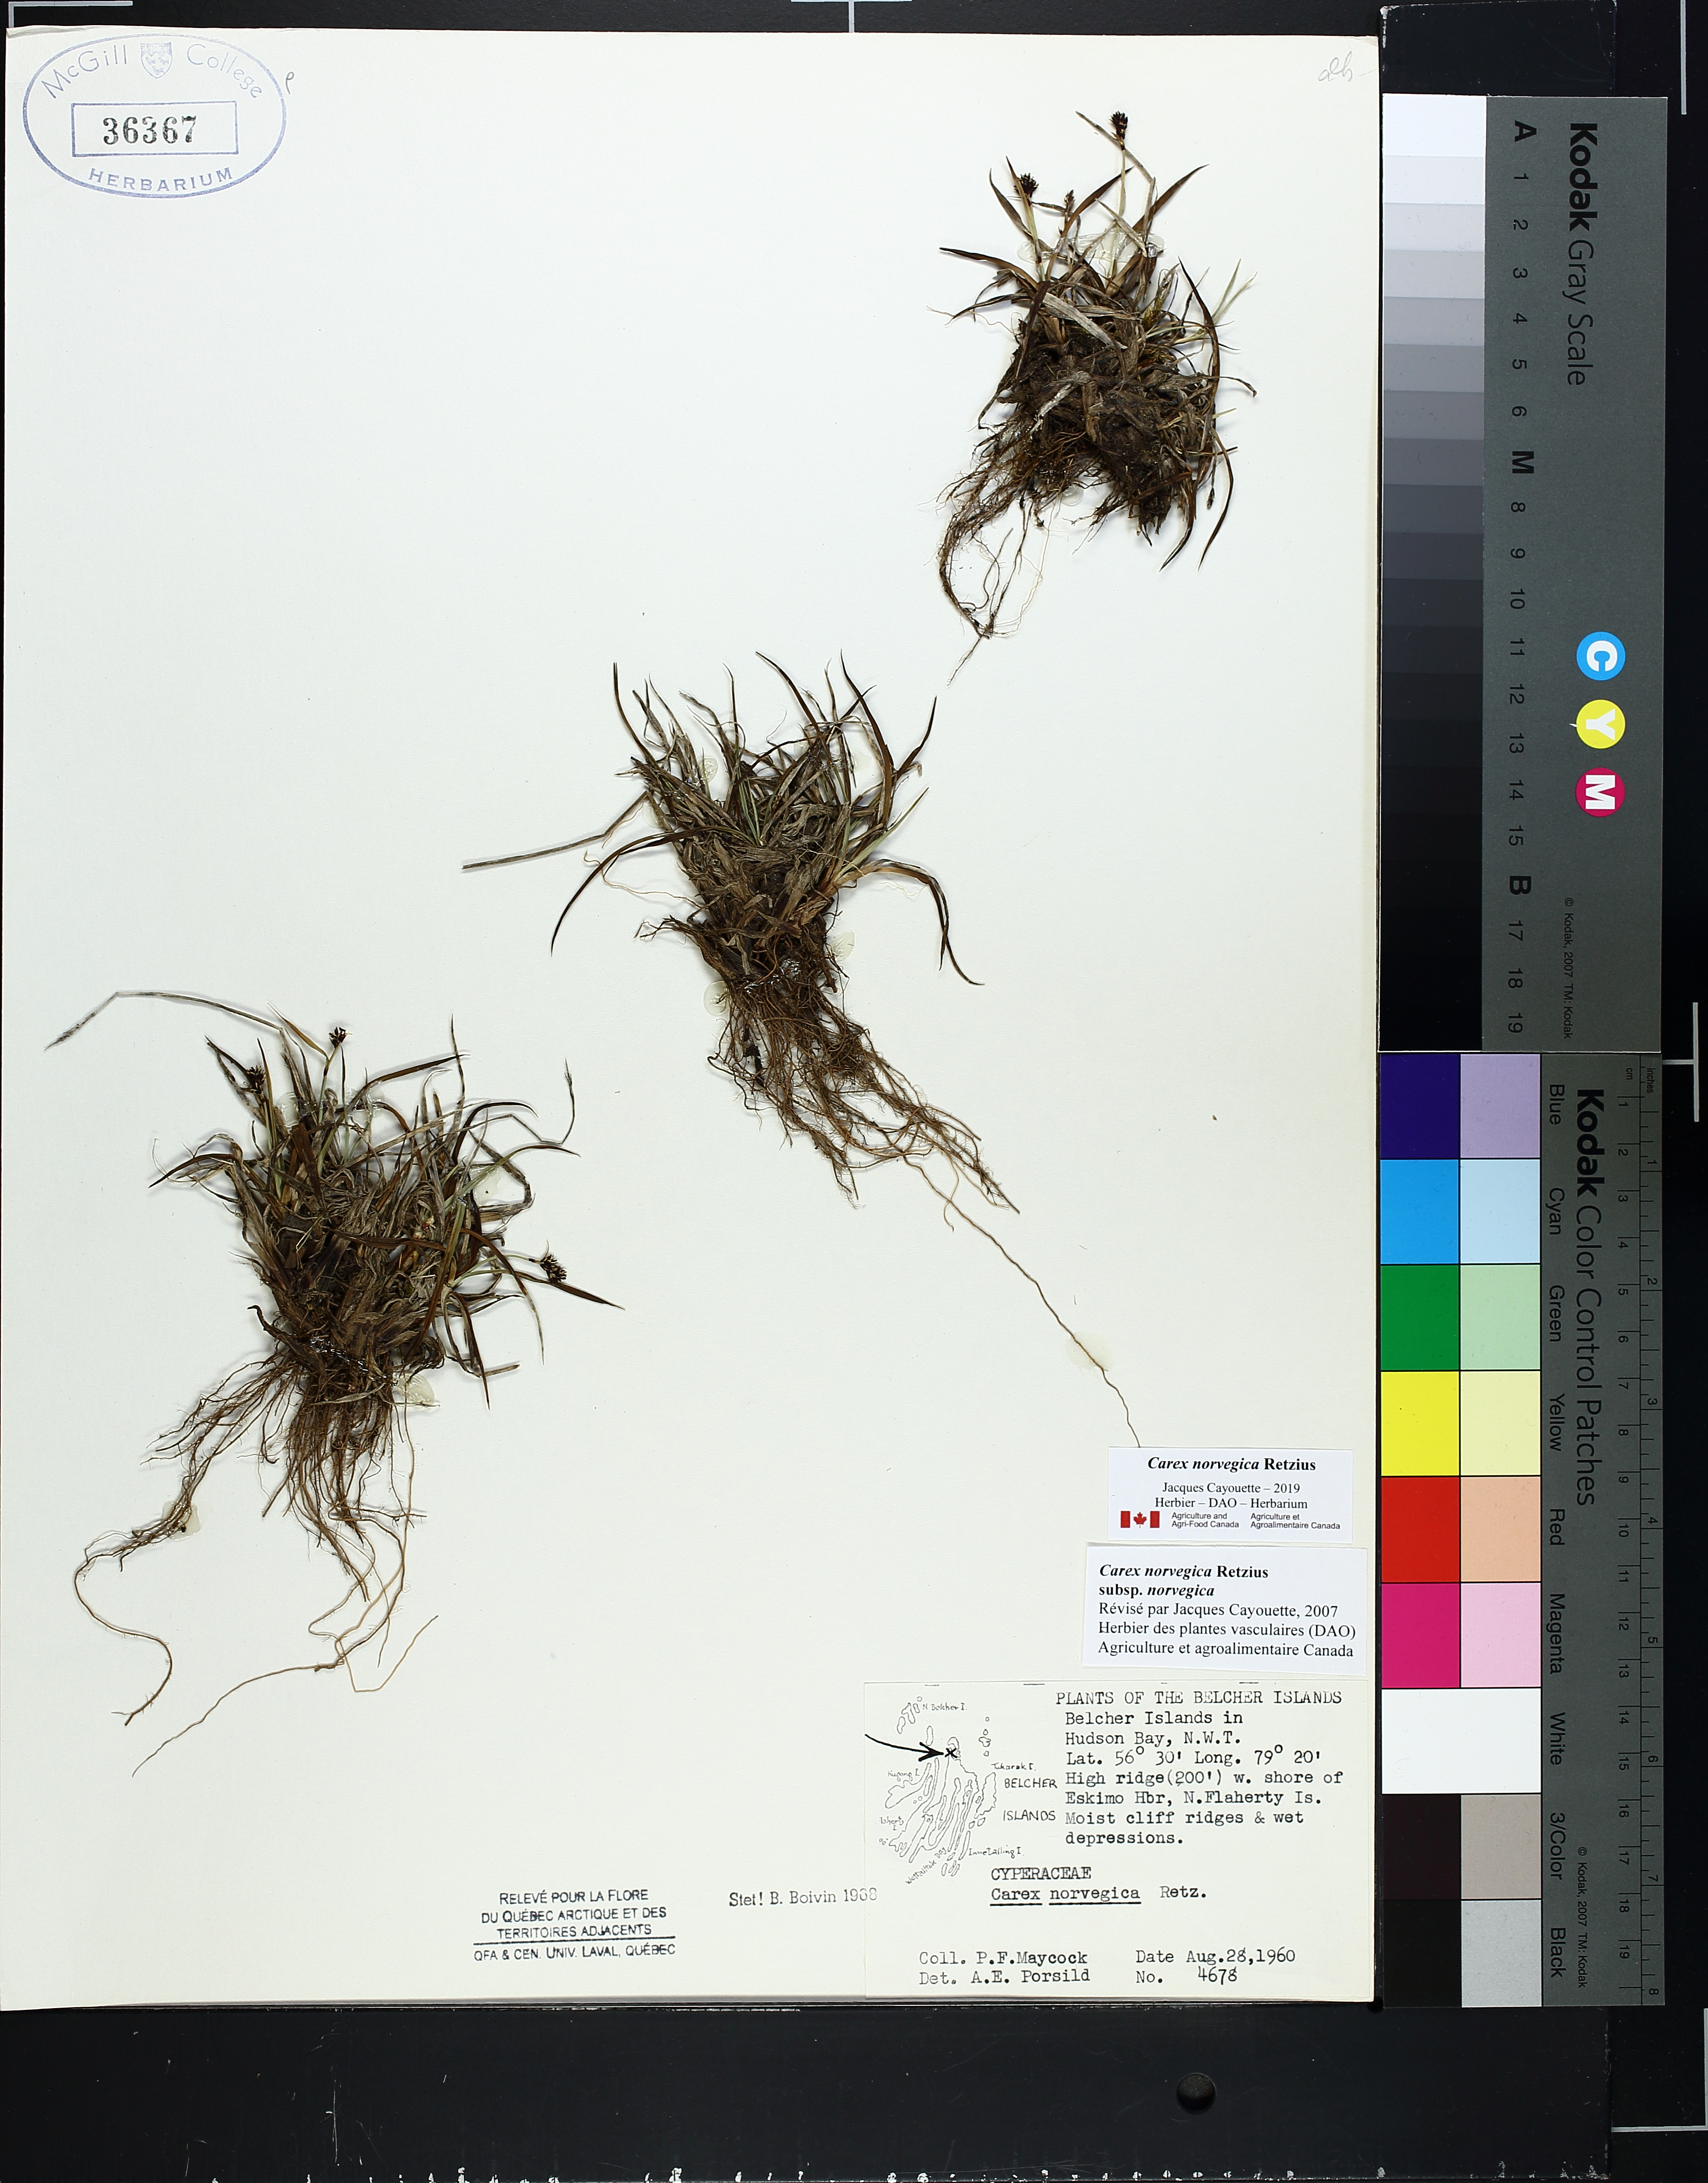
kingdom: Plantae
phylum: Tracheophyta
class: Liliopsida
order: Poales
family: Cyperaceae
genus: Carex
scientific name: Carex norvegica
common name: Close-headed alpine-sedge
